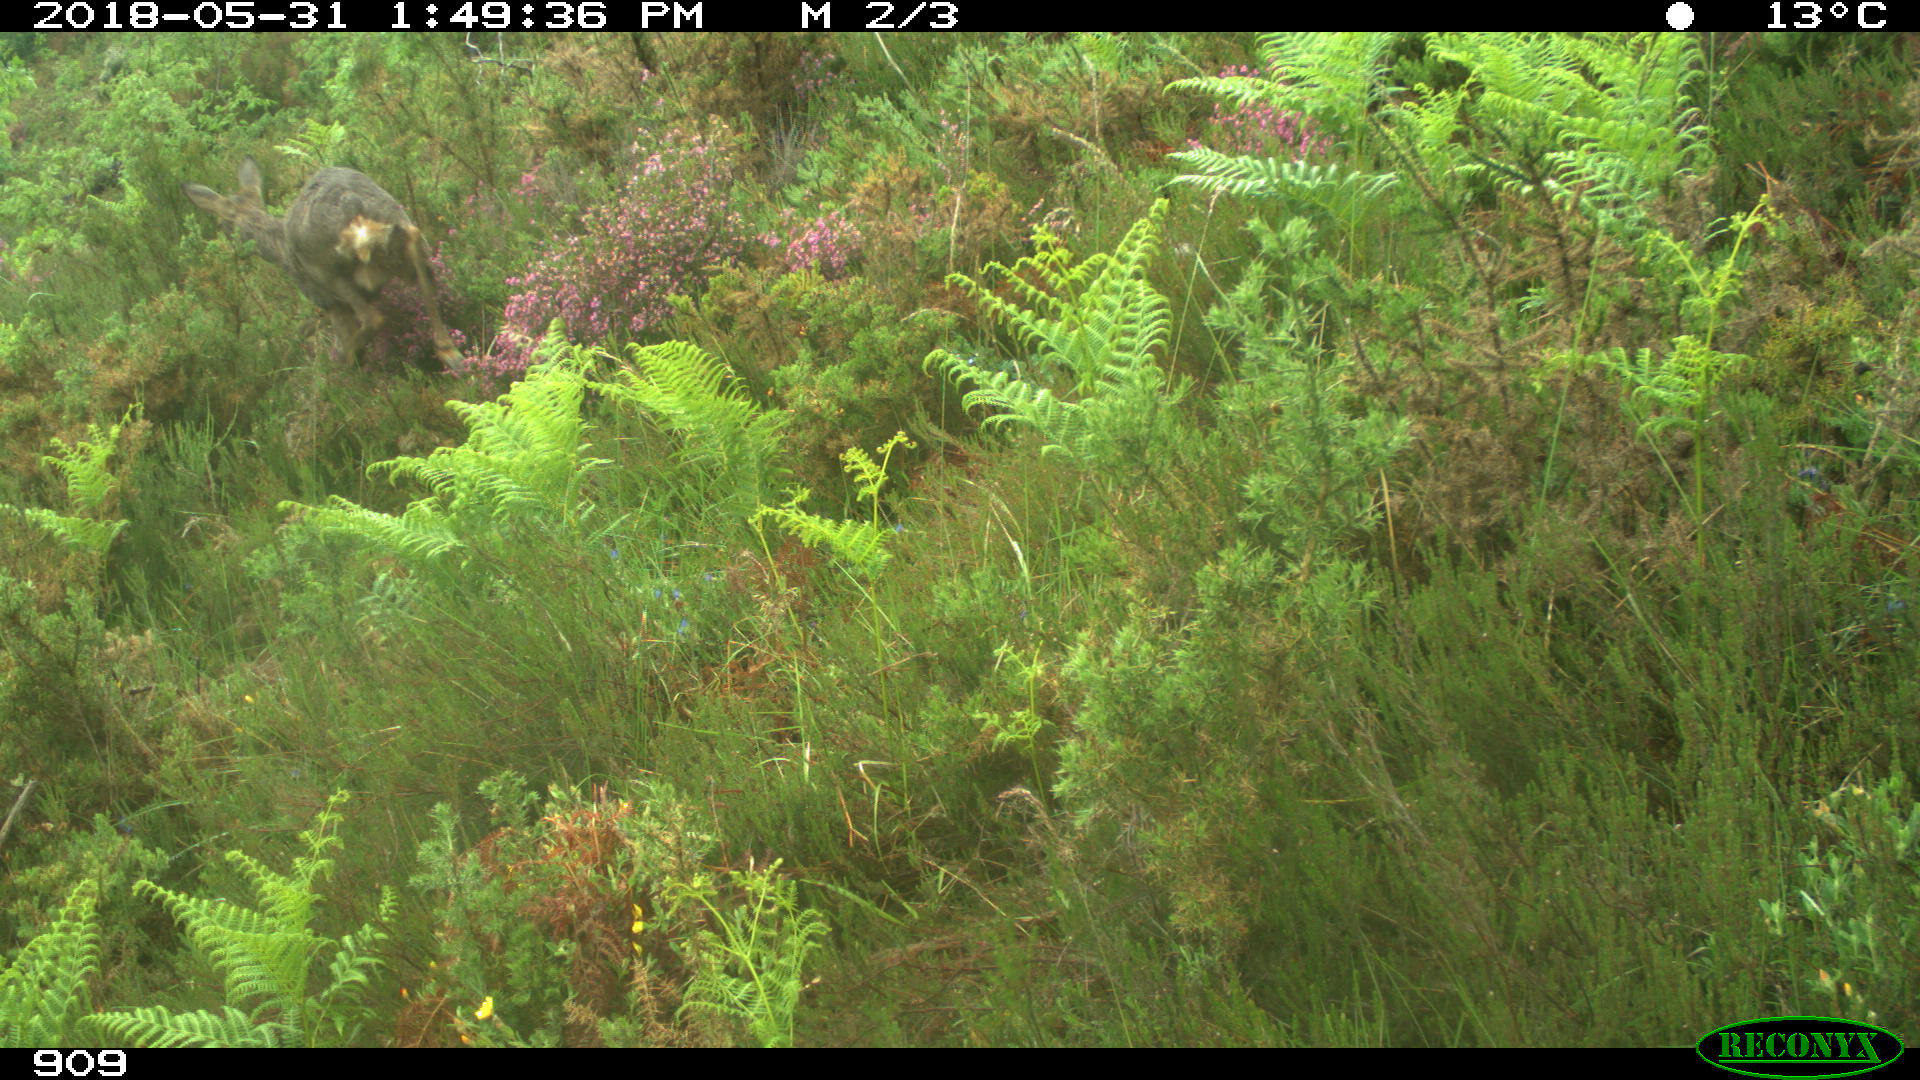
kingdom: Animalia
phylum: Chordata
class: Mammalia
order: Artiodactyla
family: Cervidae
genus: Capreolus
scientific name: Capreolus capreolus
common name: Western roe deer
